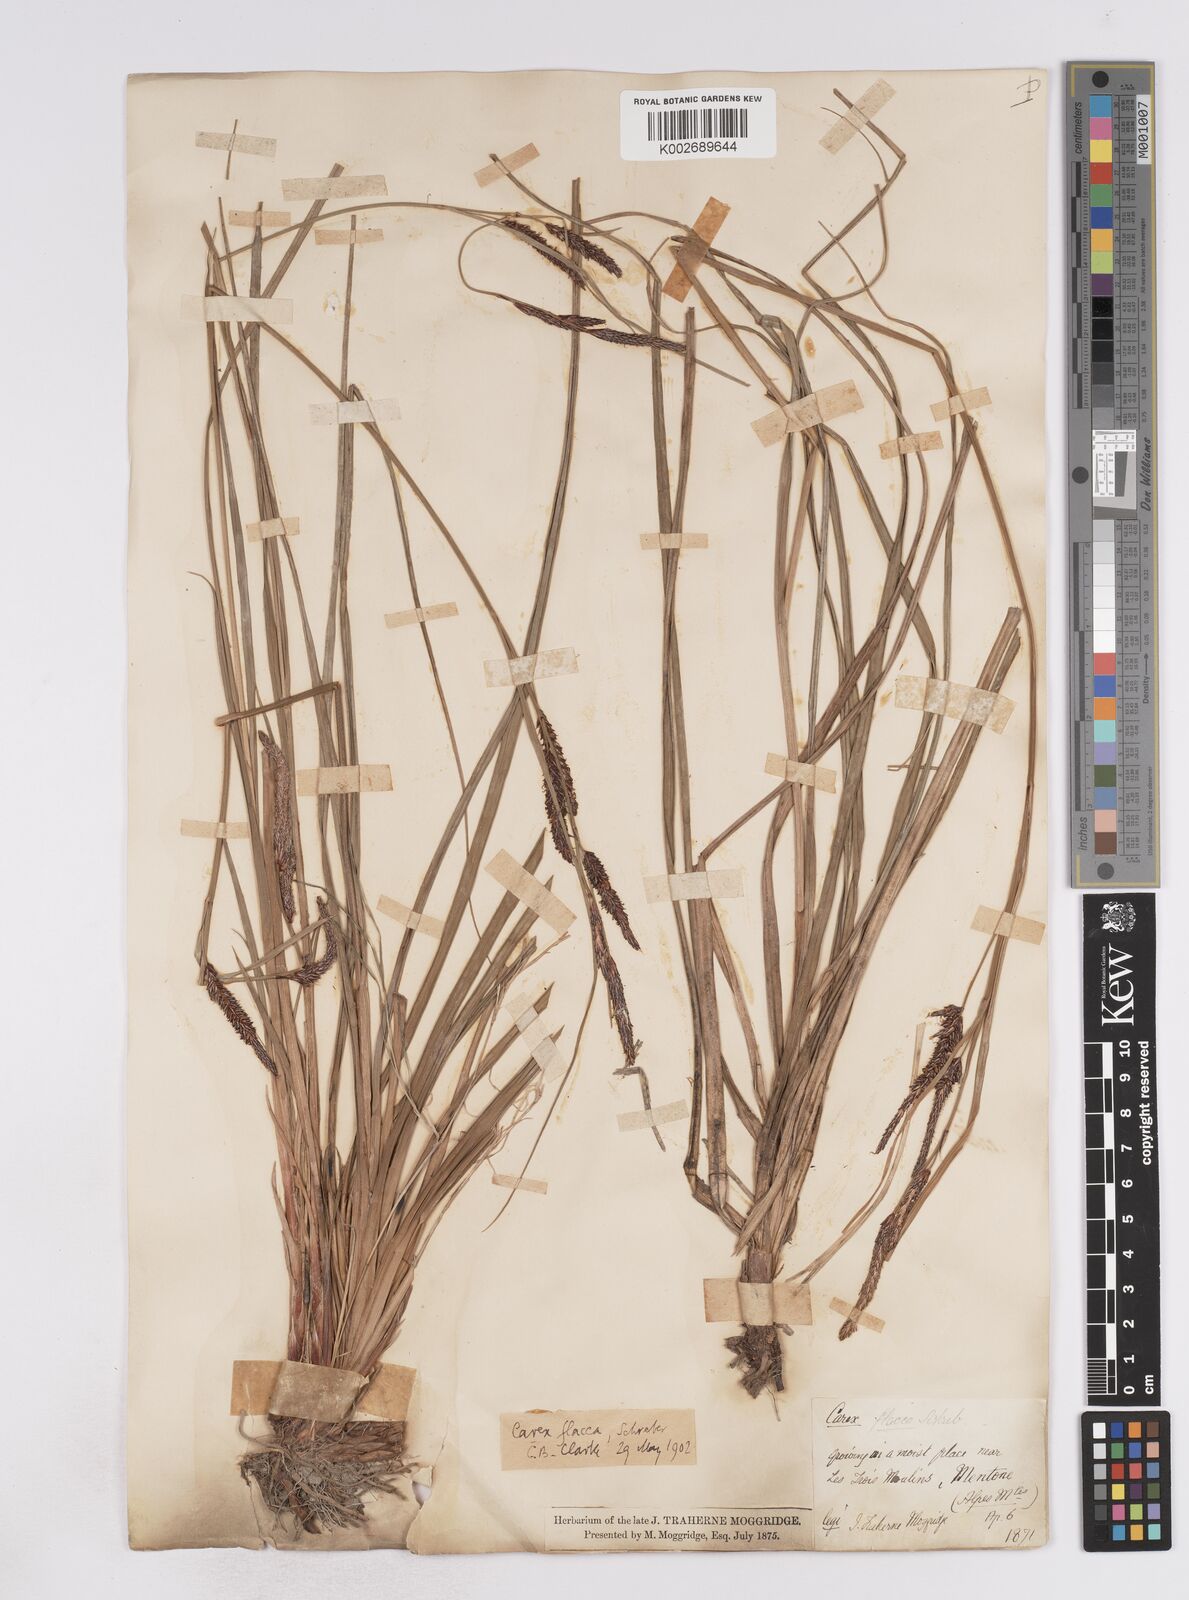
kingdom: Plantae
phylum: Tracheophyta
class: Liliopsida
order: Poales
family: Cyperaceae
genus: Carex
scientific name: Carex flacca
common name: Glaucous sedge
